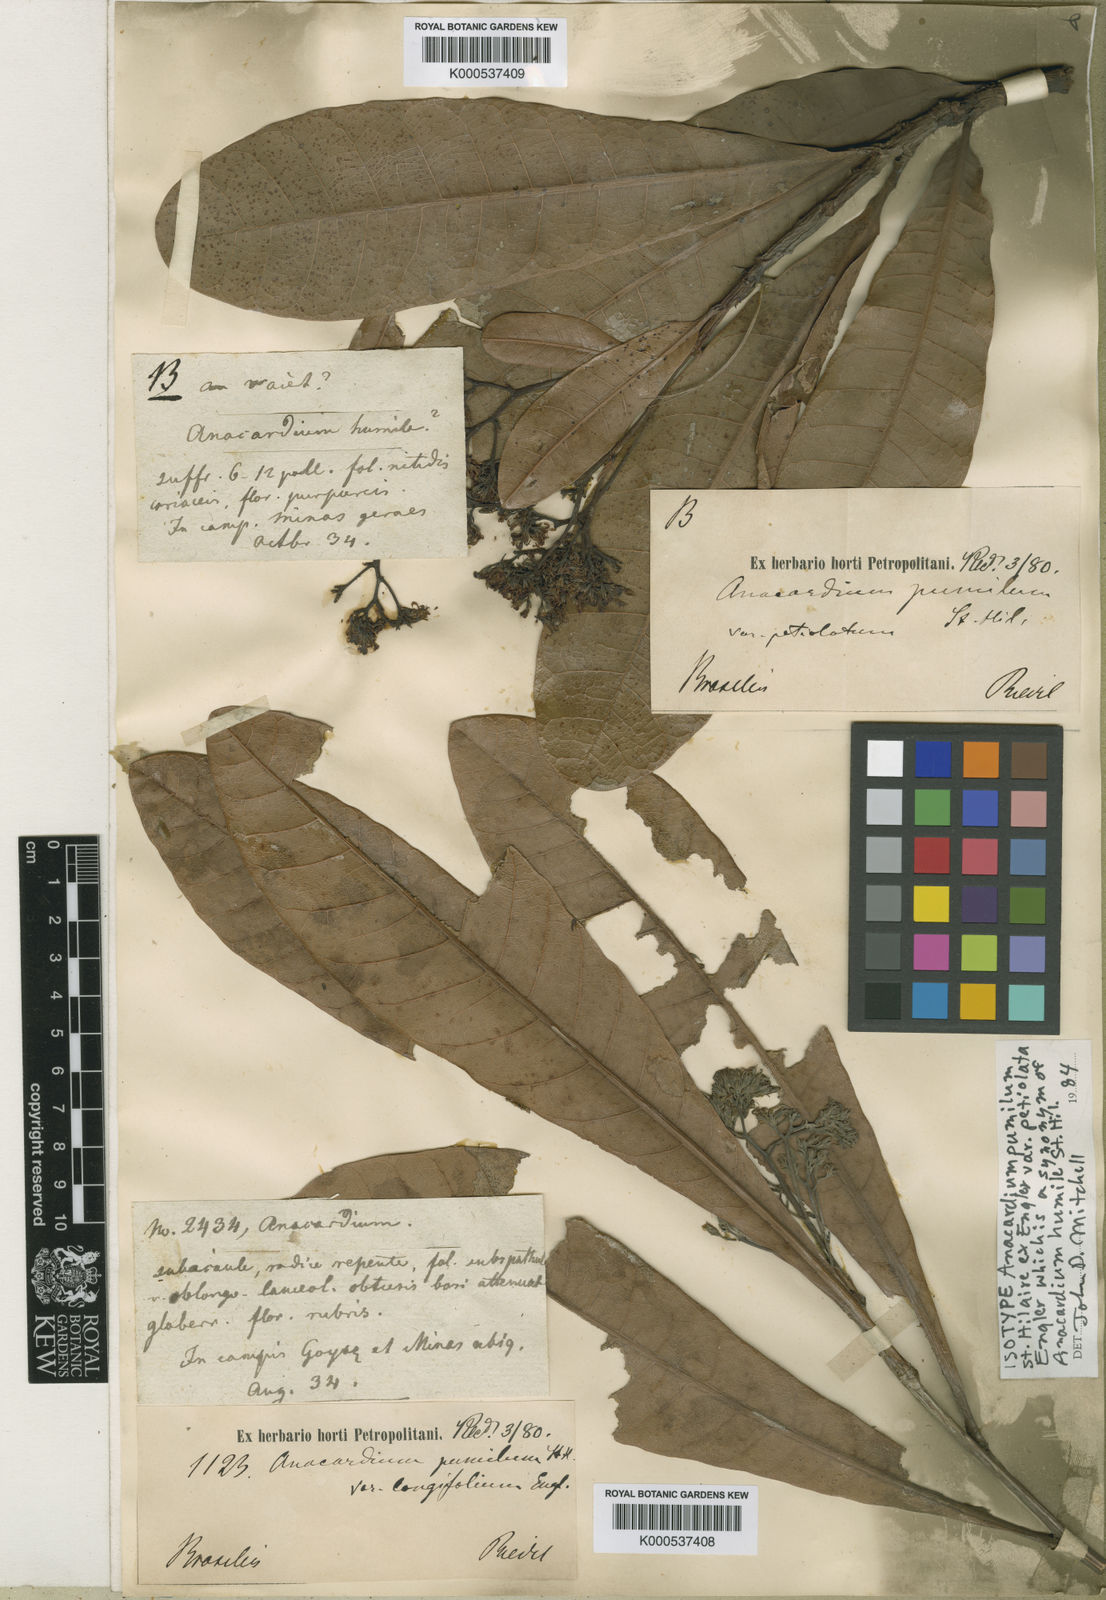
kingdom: Plantae
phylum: Tracheophyta
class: Magnoliopsida
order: Sapindales
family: Anacardiaceae
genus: Anacardium
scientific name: Anacardium humile
